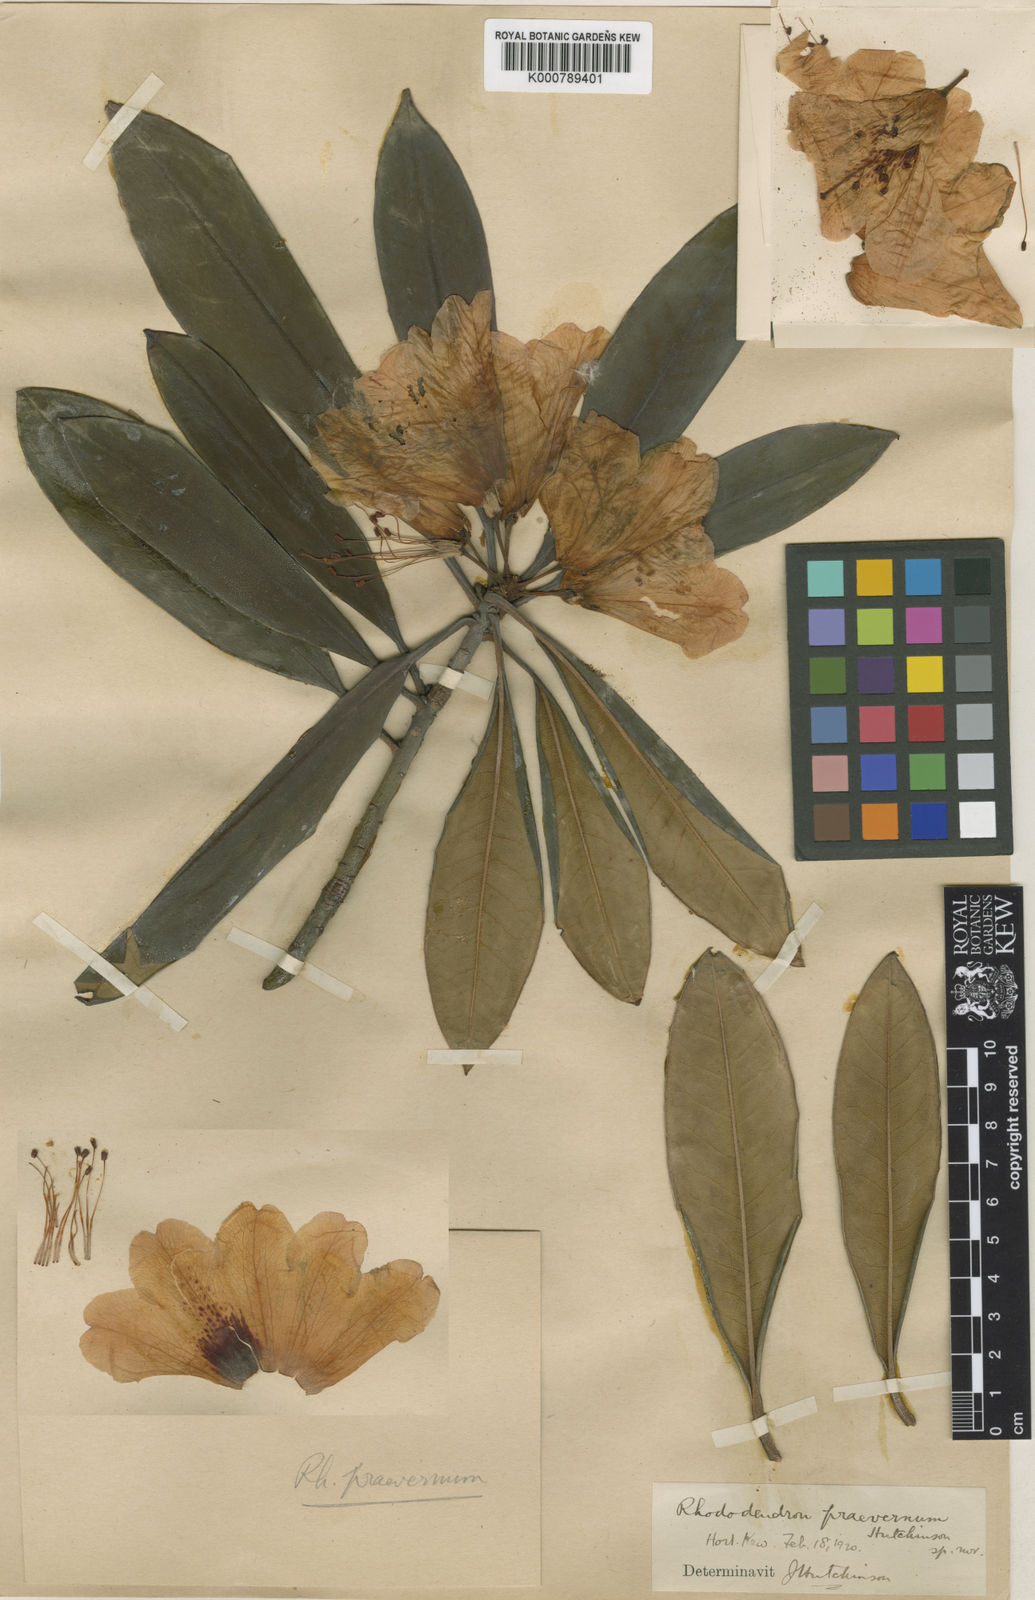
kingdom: Plantae
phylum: Tracheophyta
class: Magnoliopsida
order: Ericales
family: Ericaceae
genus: Rhododendron
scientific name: Rhododendron
